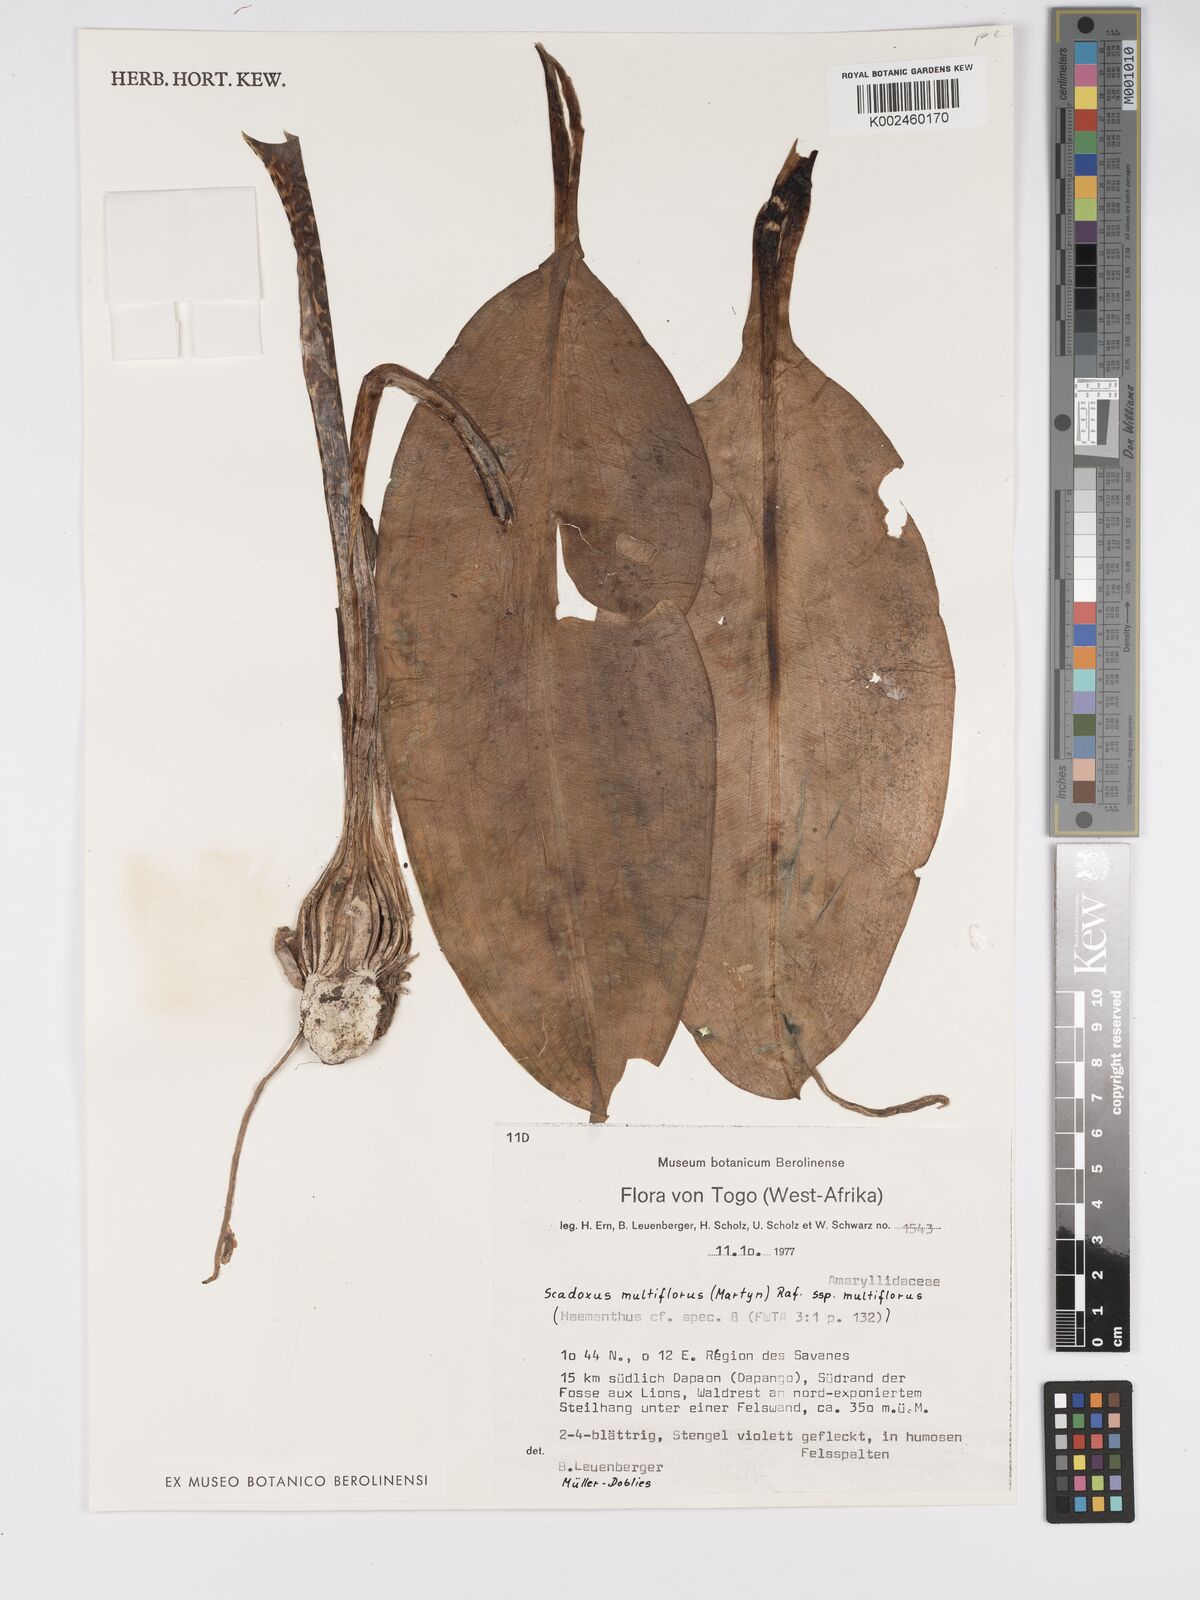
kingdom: Plantae
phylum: Tracheophyta
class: Liliopsida
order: Asparagales
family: Amaryllidaceae
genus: Scadoxus
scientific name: Scadoxus multiflorus
